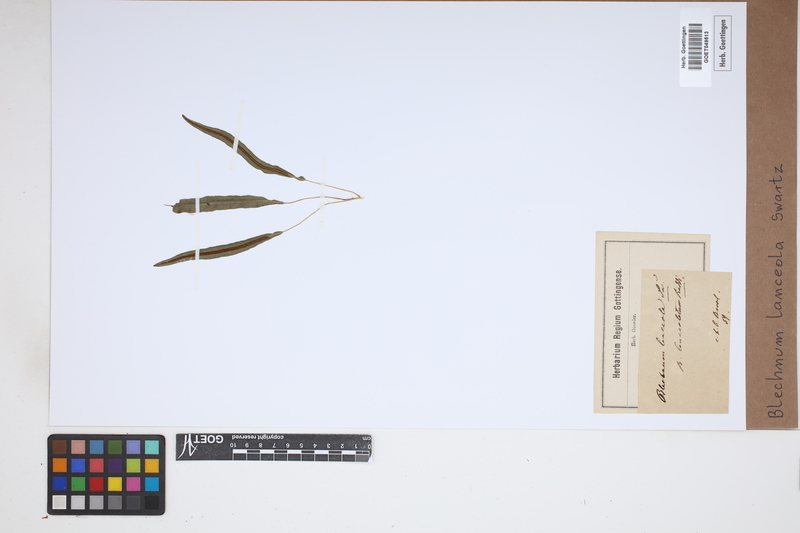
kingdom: Plantae
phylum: Tracheophyta
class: Polypodiopsida
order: Polypodiales
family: Blechnaceae
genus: Blechnum
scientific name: Blechnum lanceola
